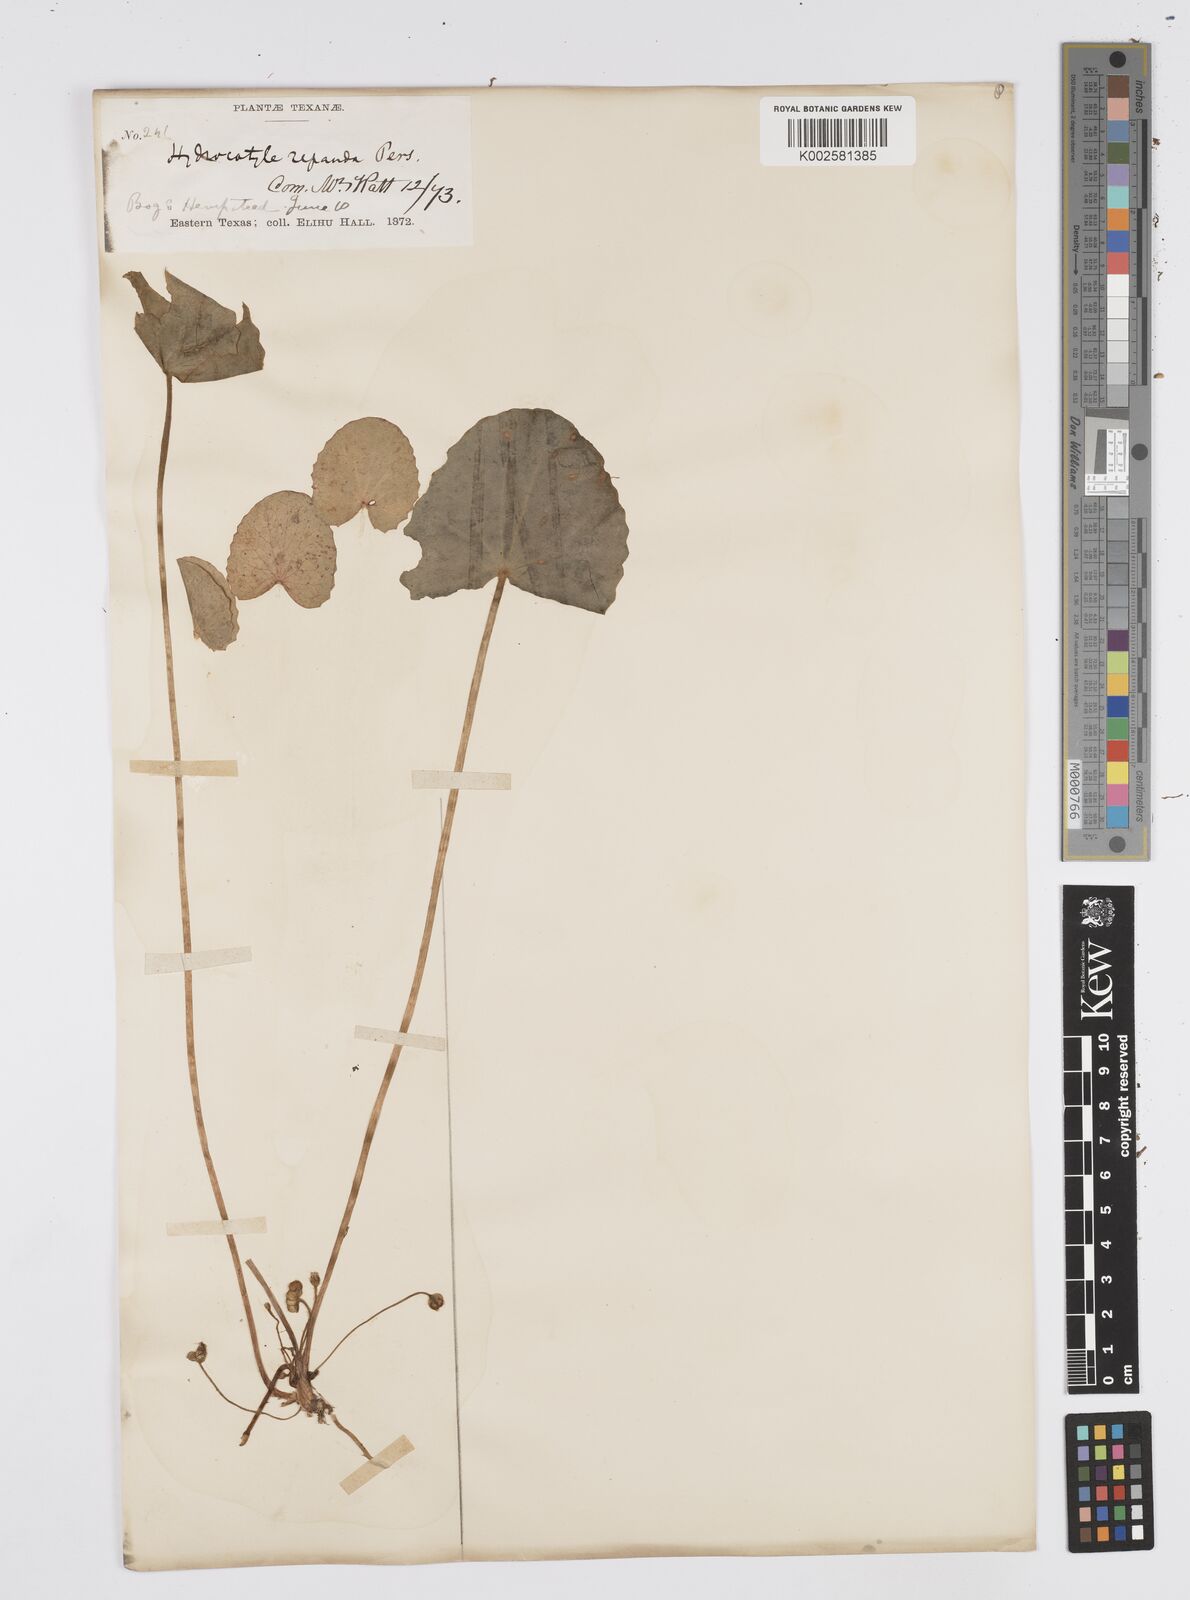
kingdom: Plantae
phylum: Tracheophyta
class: Magnoliopsida
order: Apiales
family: Apiaceae
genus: Centella
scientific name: Centella erecta
